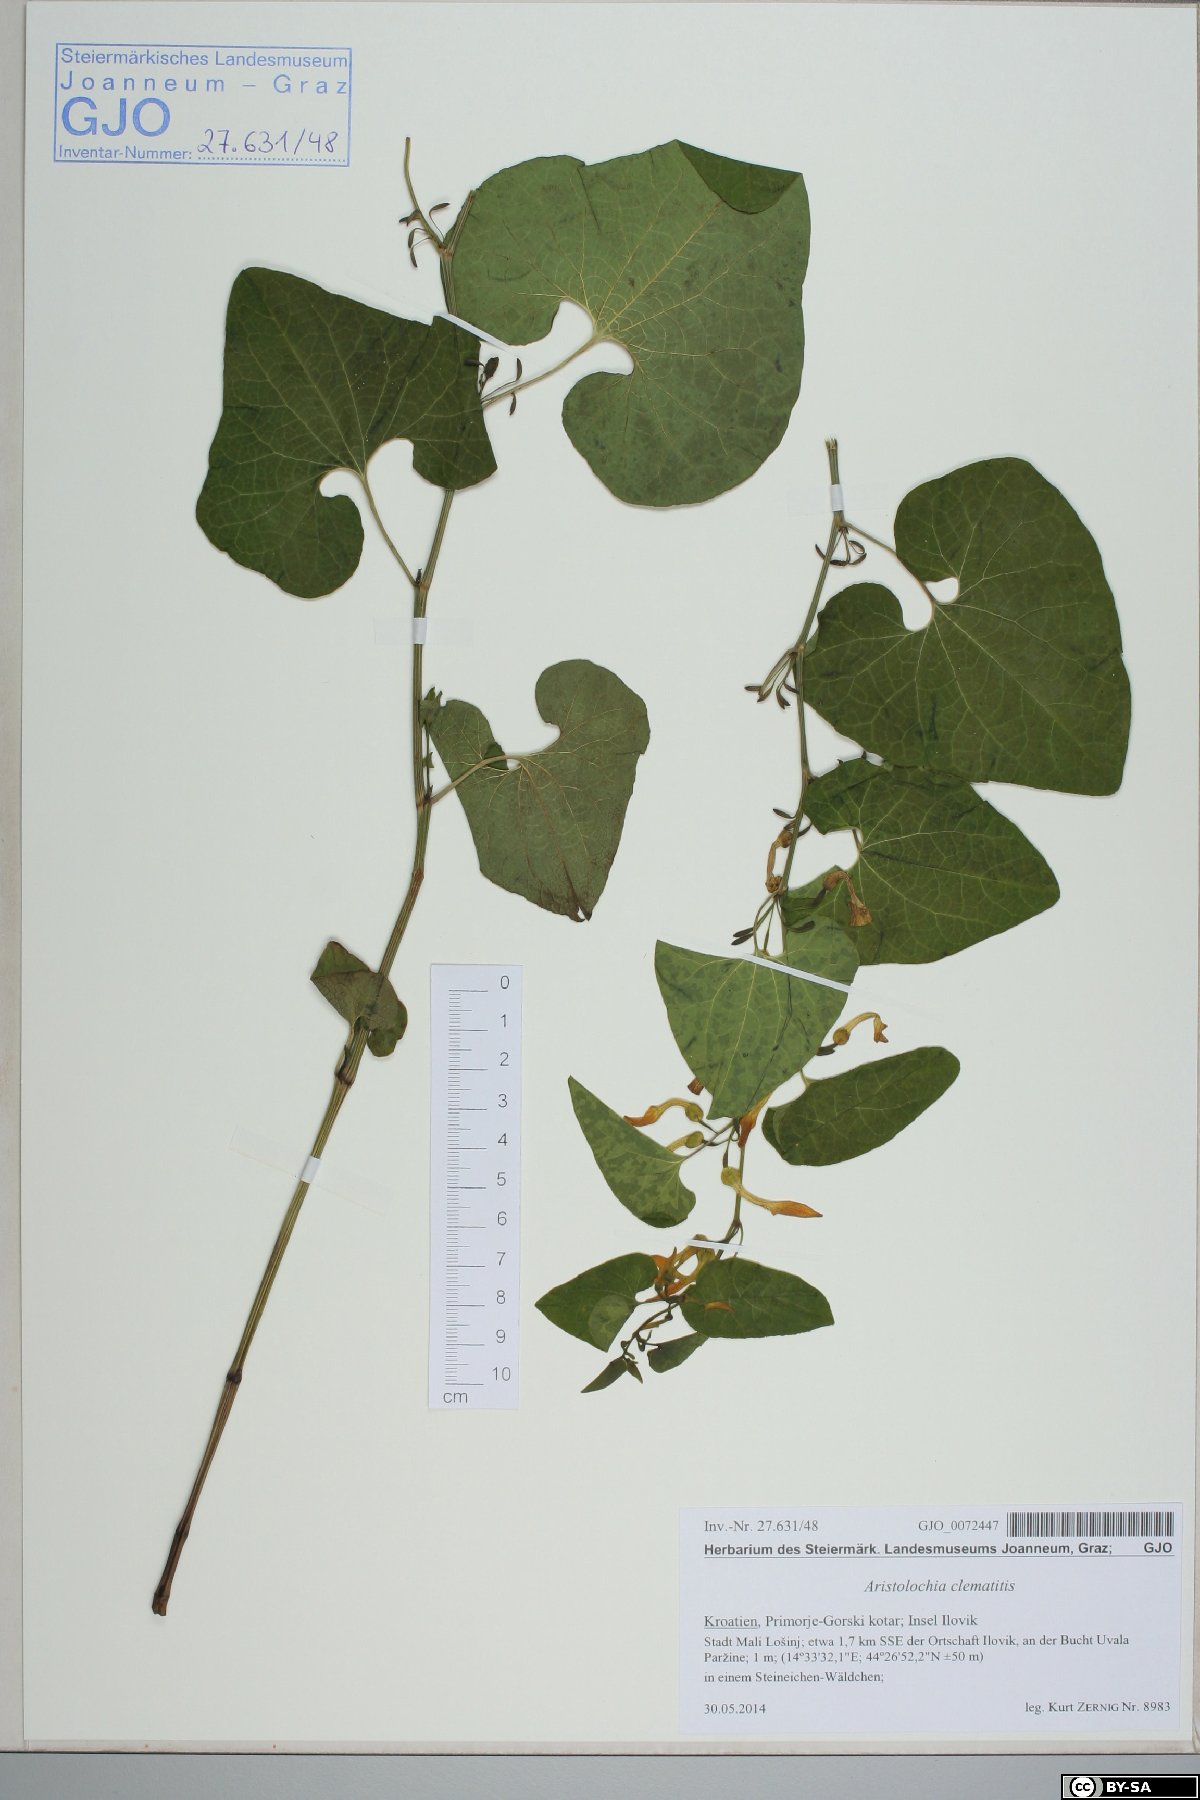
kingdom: Plantae
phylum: Tracheophyta
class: Magnoliopsida
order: Piperales
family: Aristolochiaceae
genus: Aristolochia
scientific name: Aristolochia clematitis
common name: Birthwort
